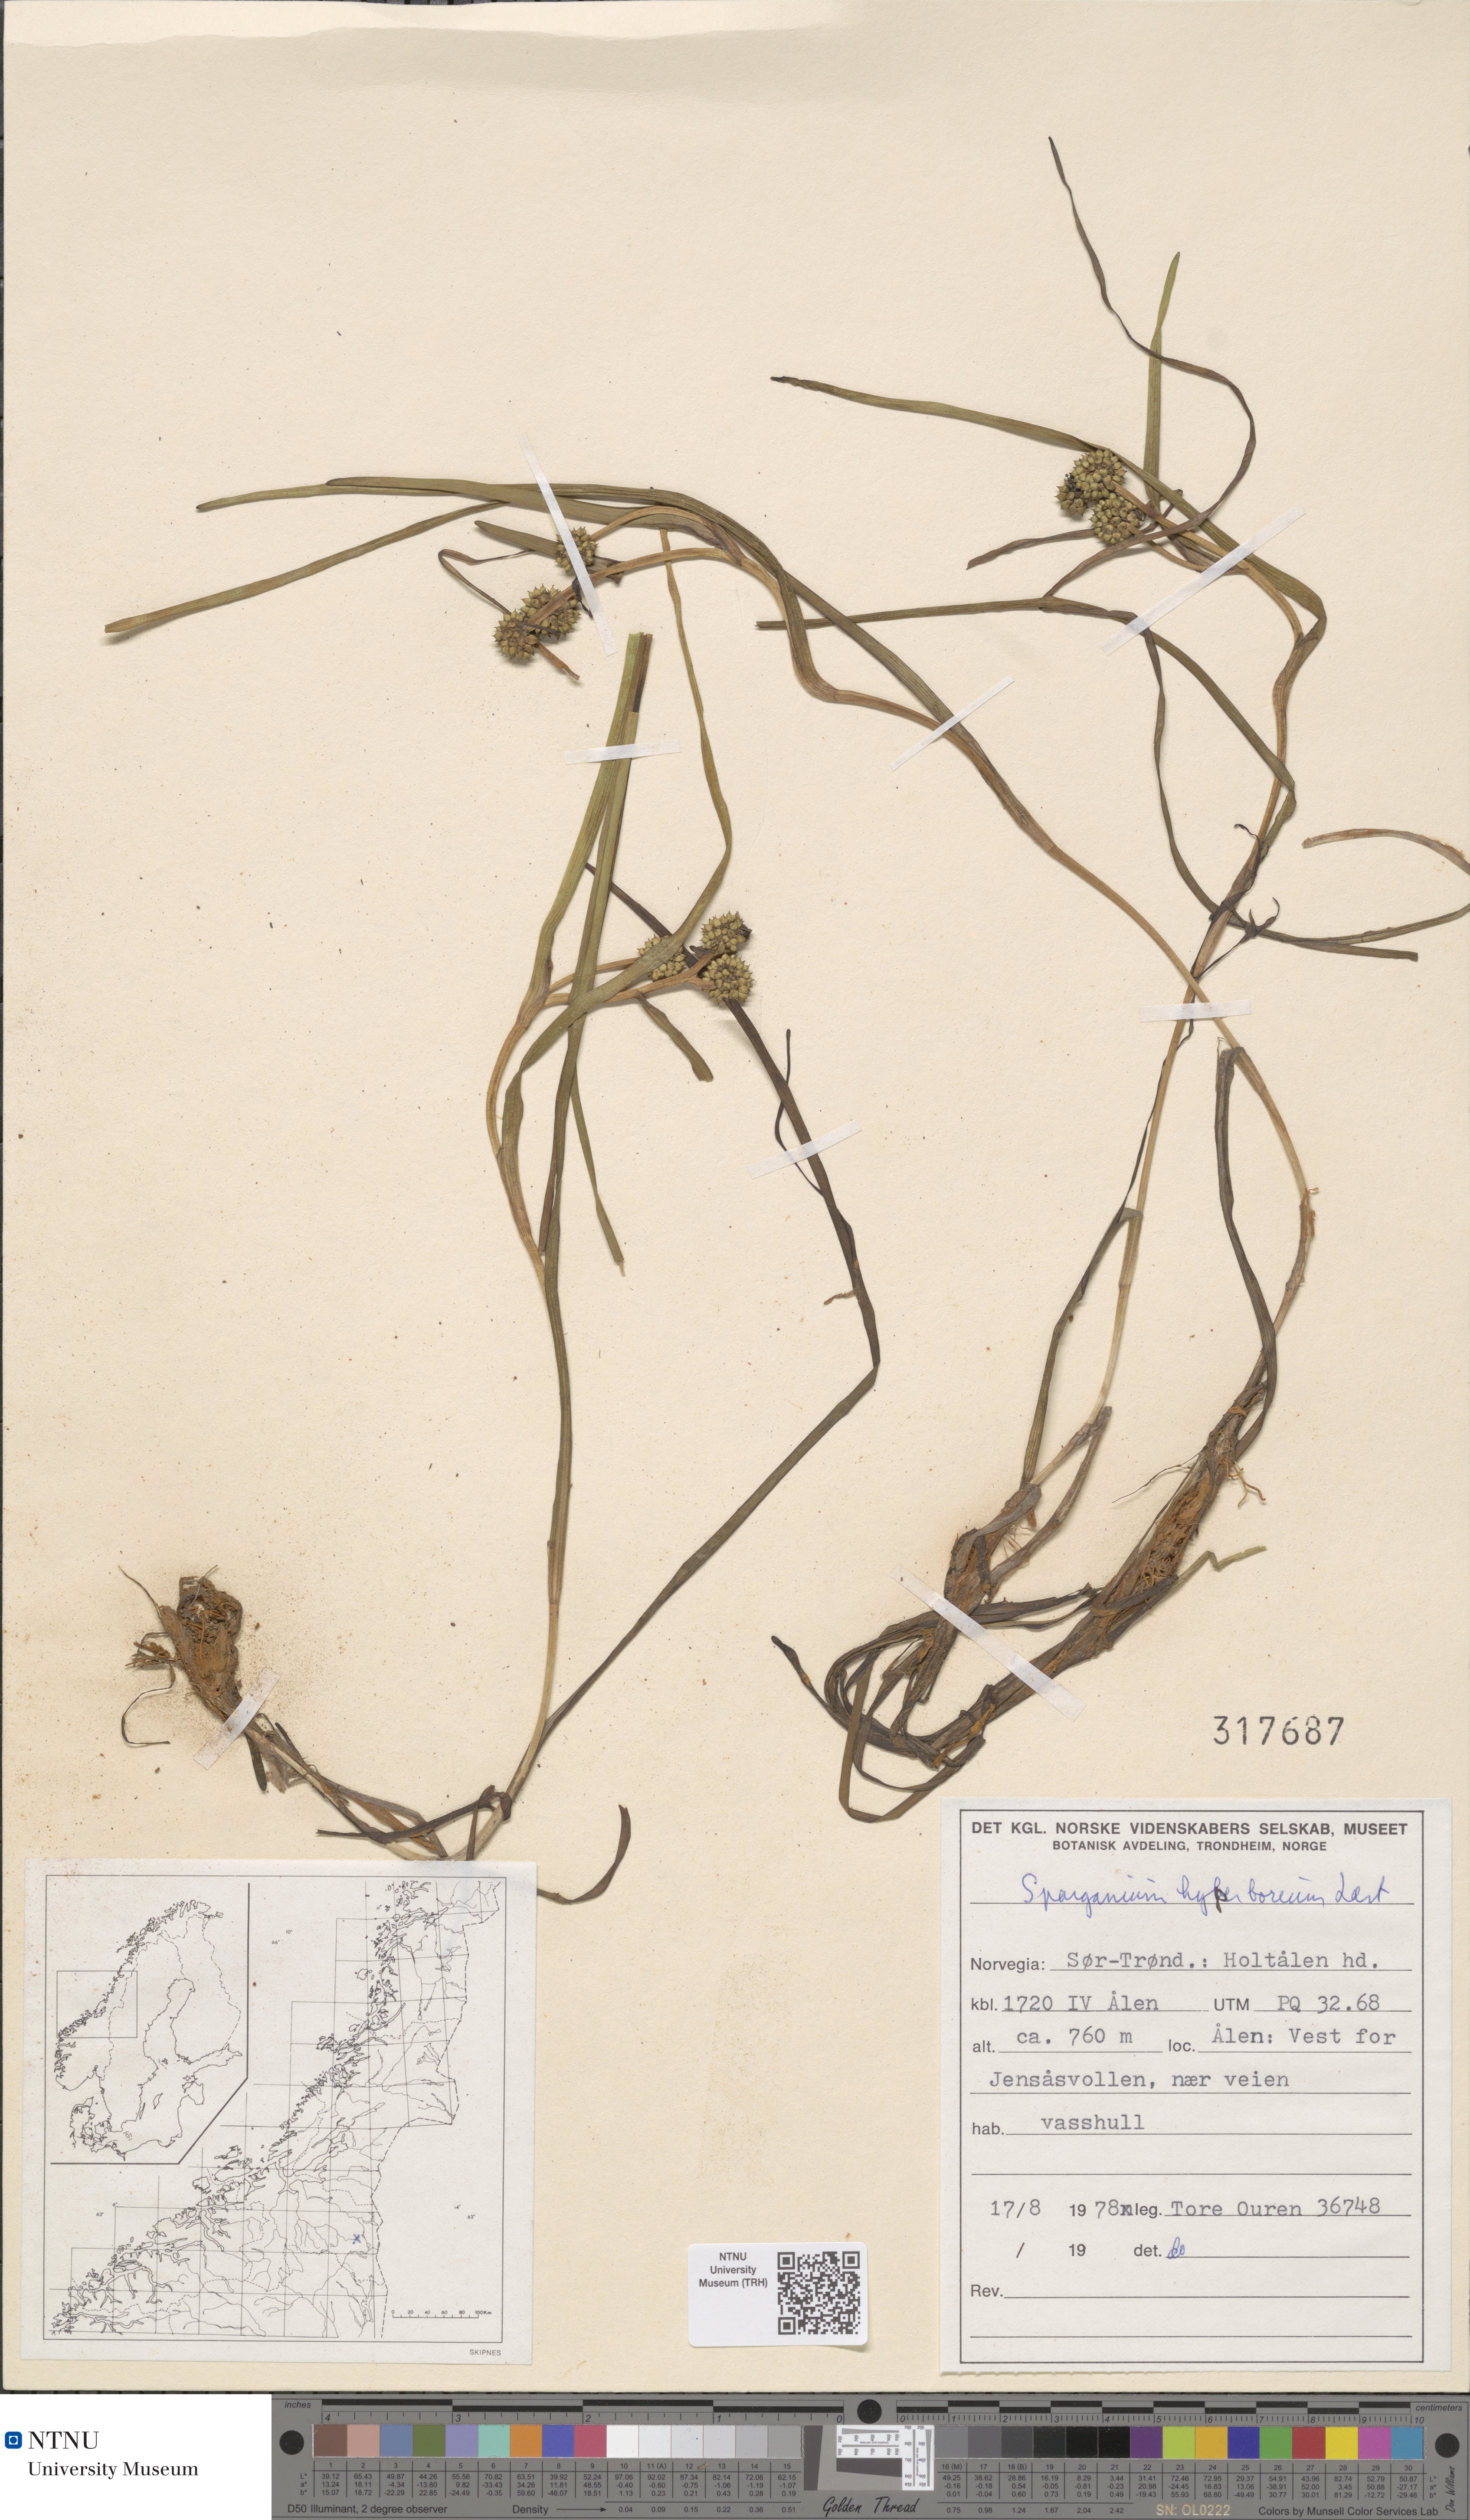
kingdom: Plantae
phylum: Tracheophyta
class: Liliopsida
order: Poales
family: Typhaceae
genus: Sparganium
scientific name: Sparganium hyperboreum
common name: Arctic burreed
